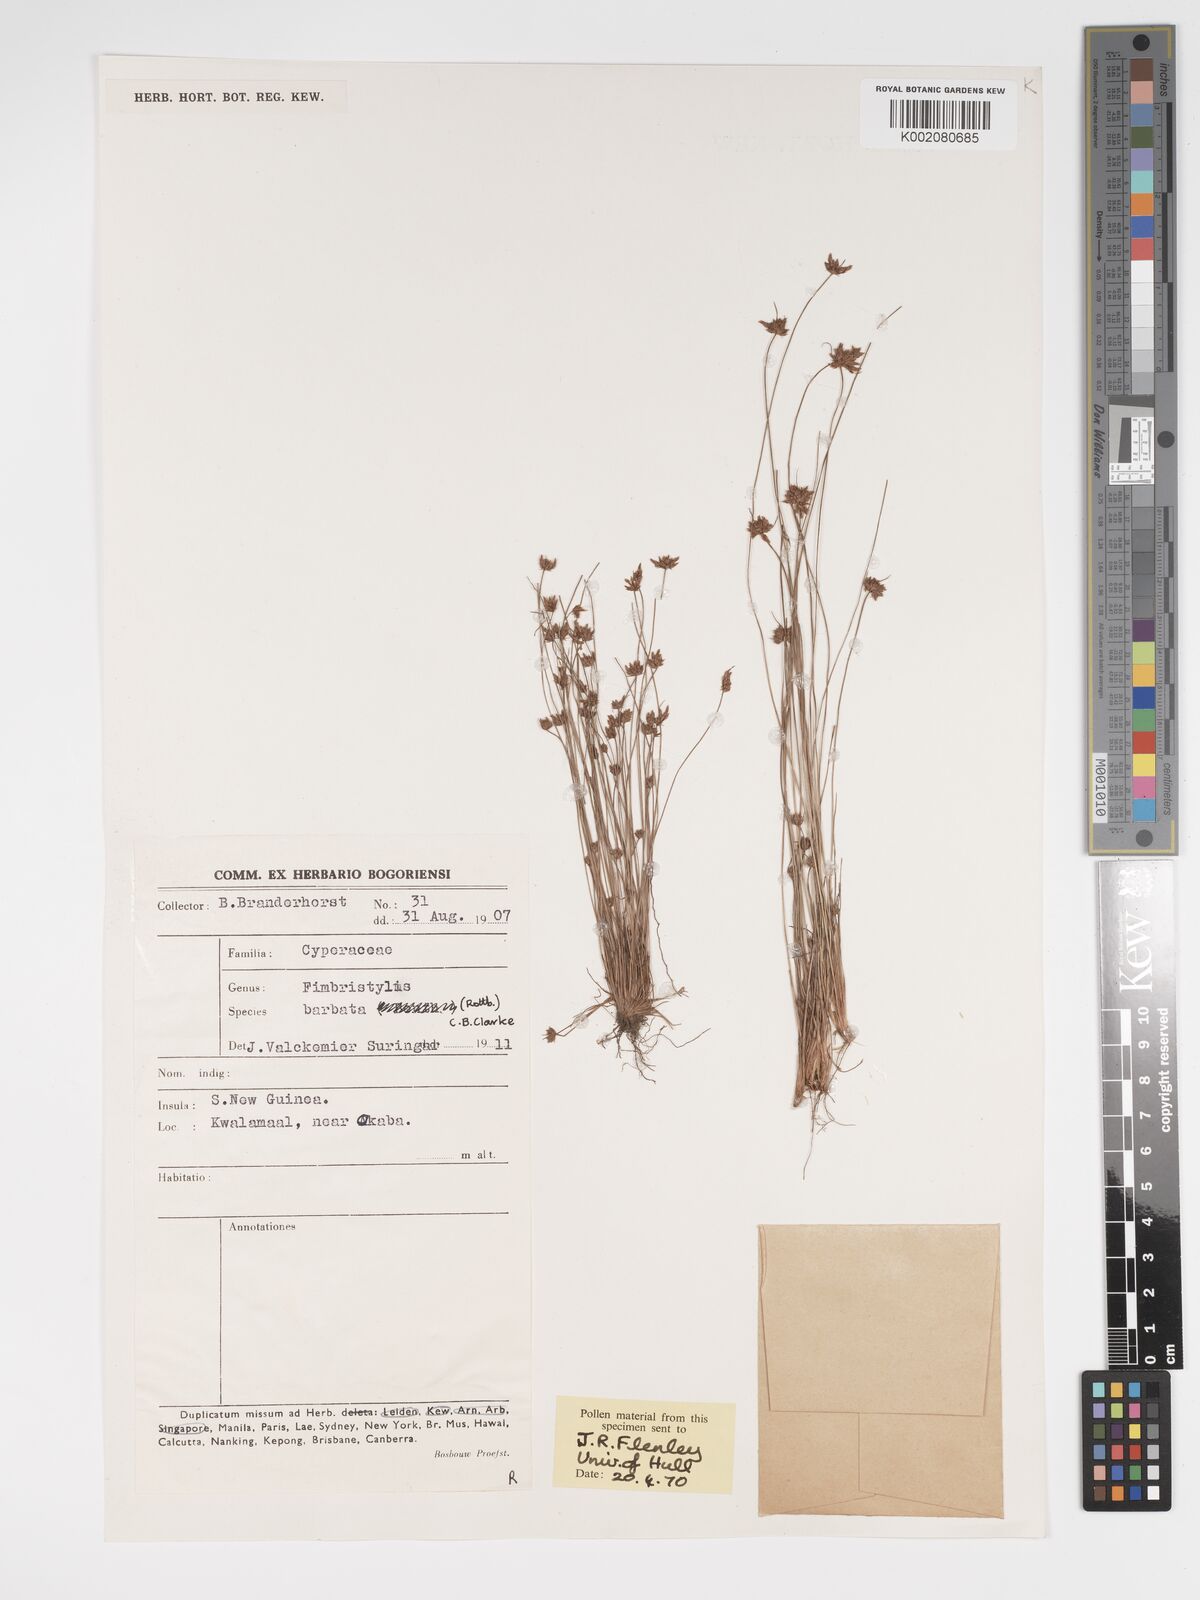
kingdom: Plantae
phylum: Tracheophyta
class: Liliopsida
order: Poales
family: Cyperaceae
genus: Bulbostylis
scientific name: Bulbostylis barbata
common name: Watergrass
